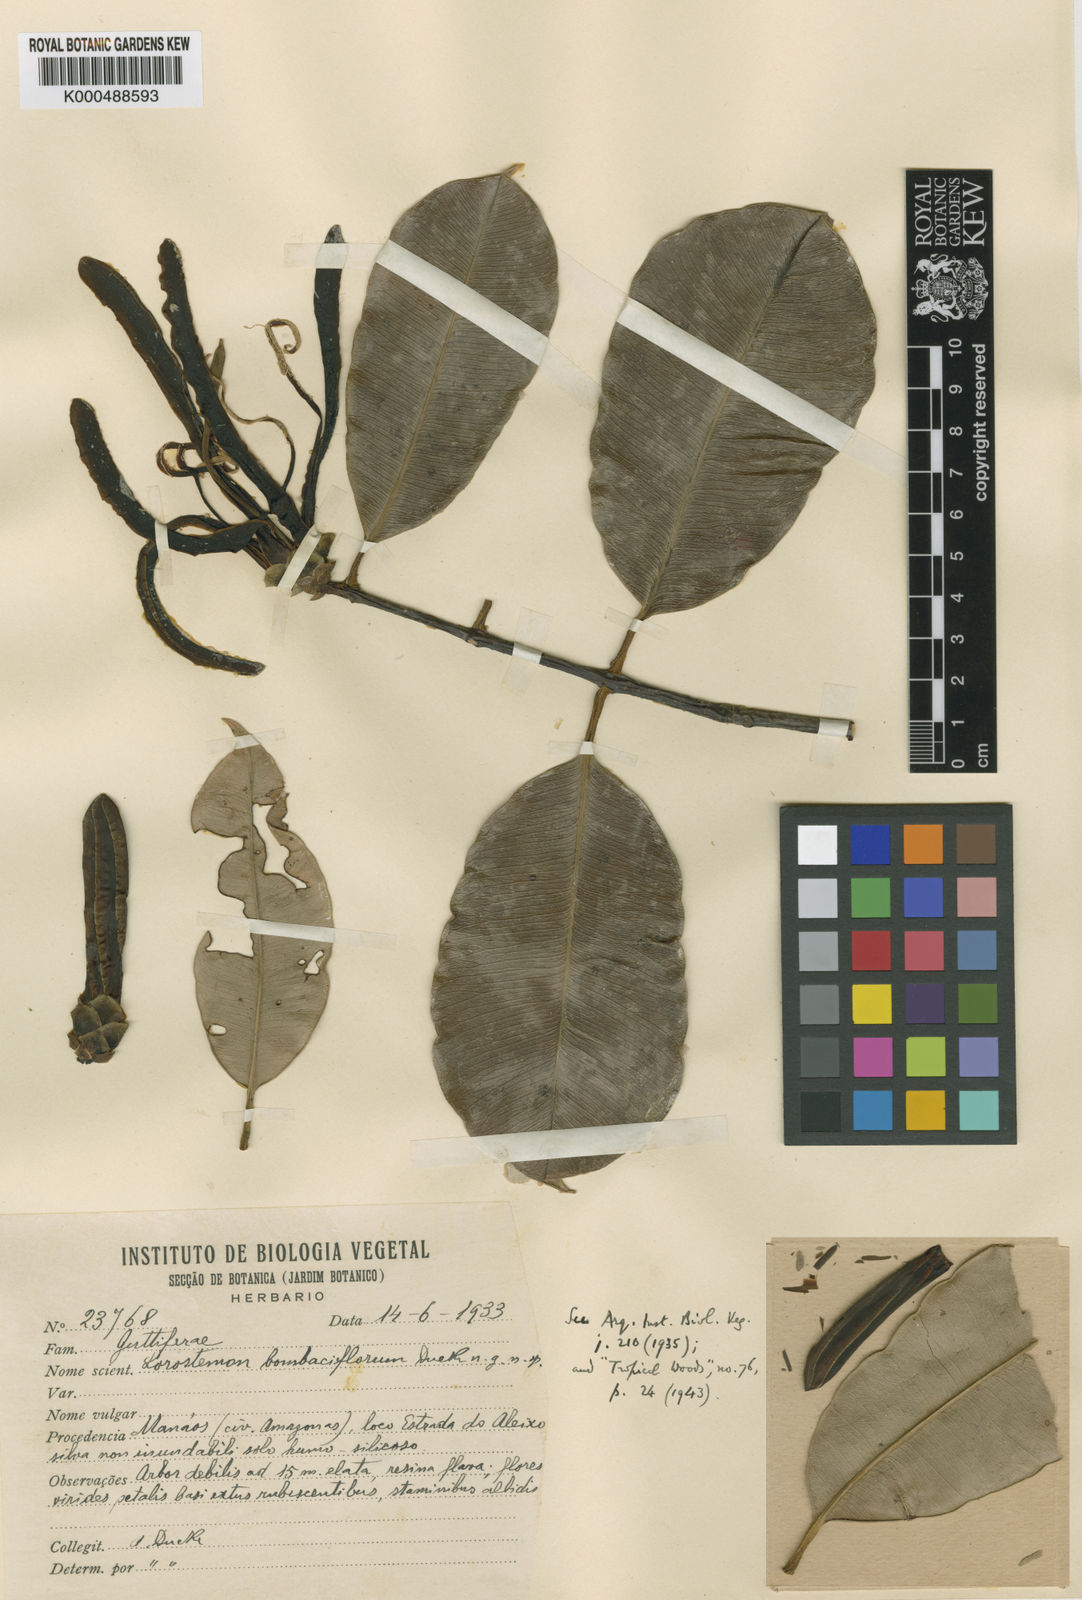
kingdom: Plantae
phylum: Tracheophyta
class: Magnoliopsida
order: Malpighiales
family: Clusiaceae
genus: Lorostemon
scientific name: Lorostemon bombaciflorus
